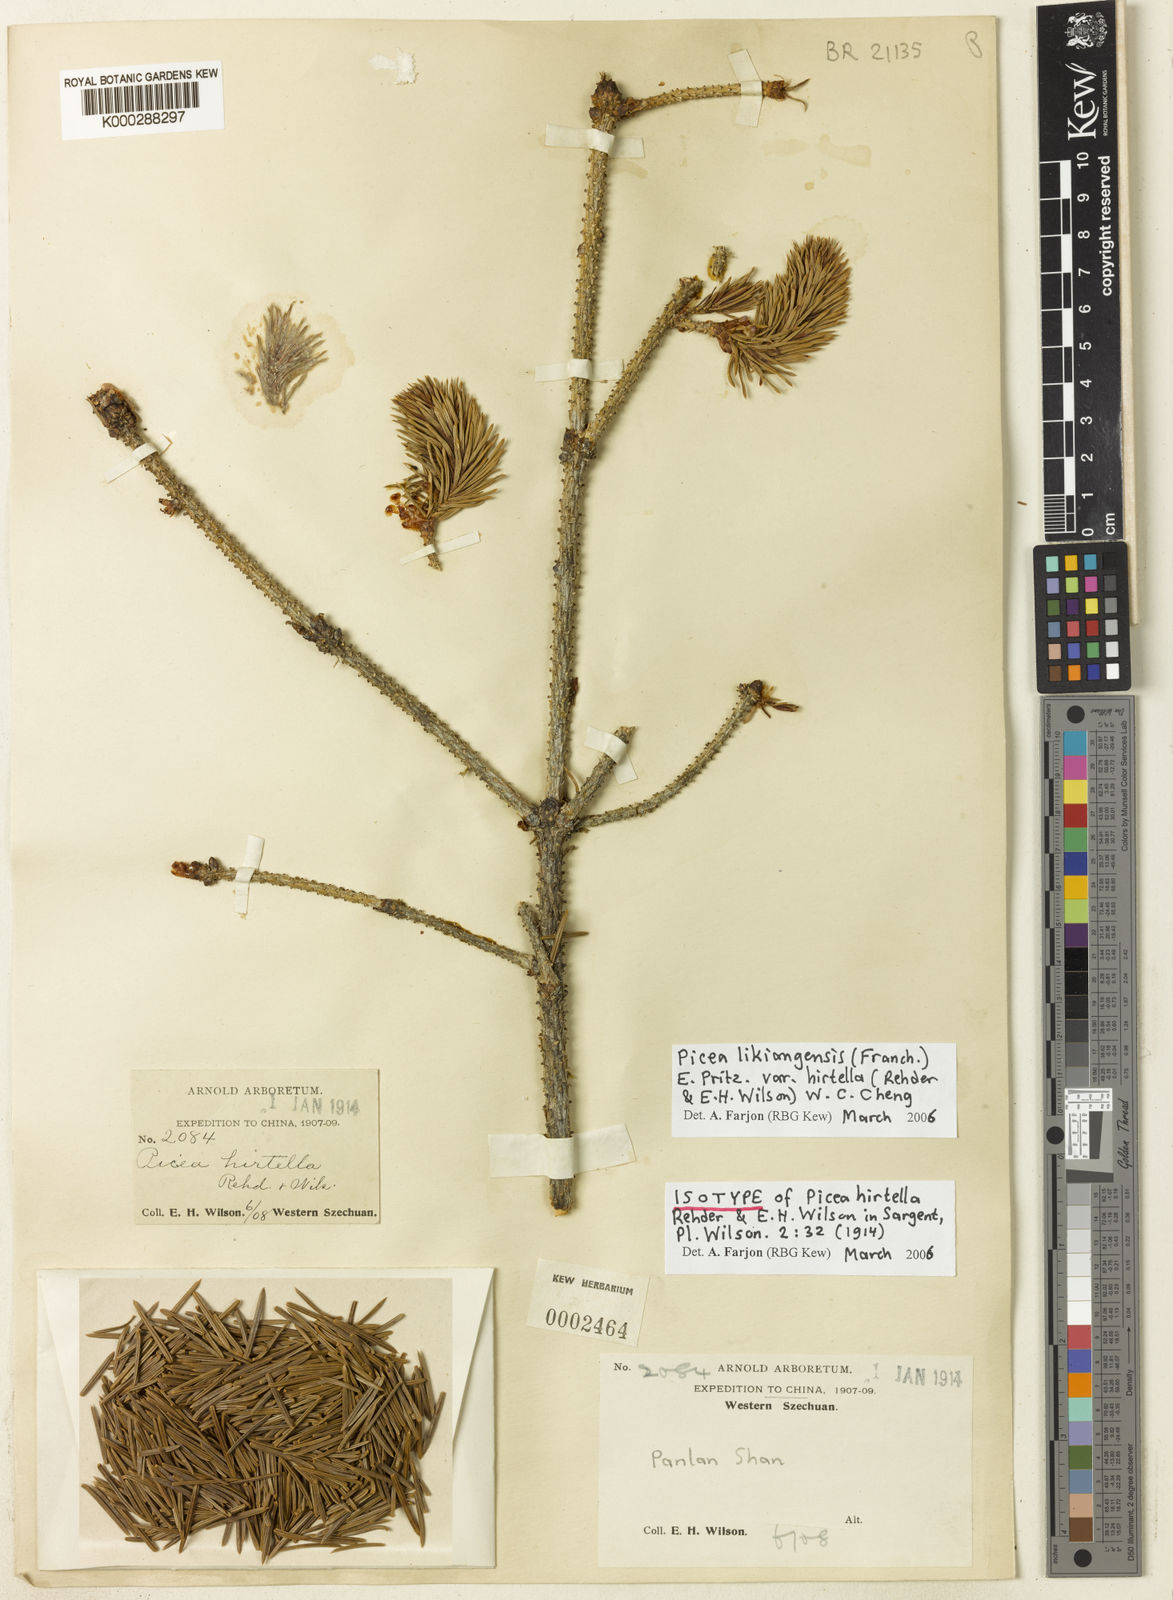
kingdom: Plantae
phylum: Tracheophyta
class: Pinopsida
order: Pinales
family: Pinaceae
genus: Picea
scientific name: Picea likiangensis
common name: Likiang spruce
